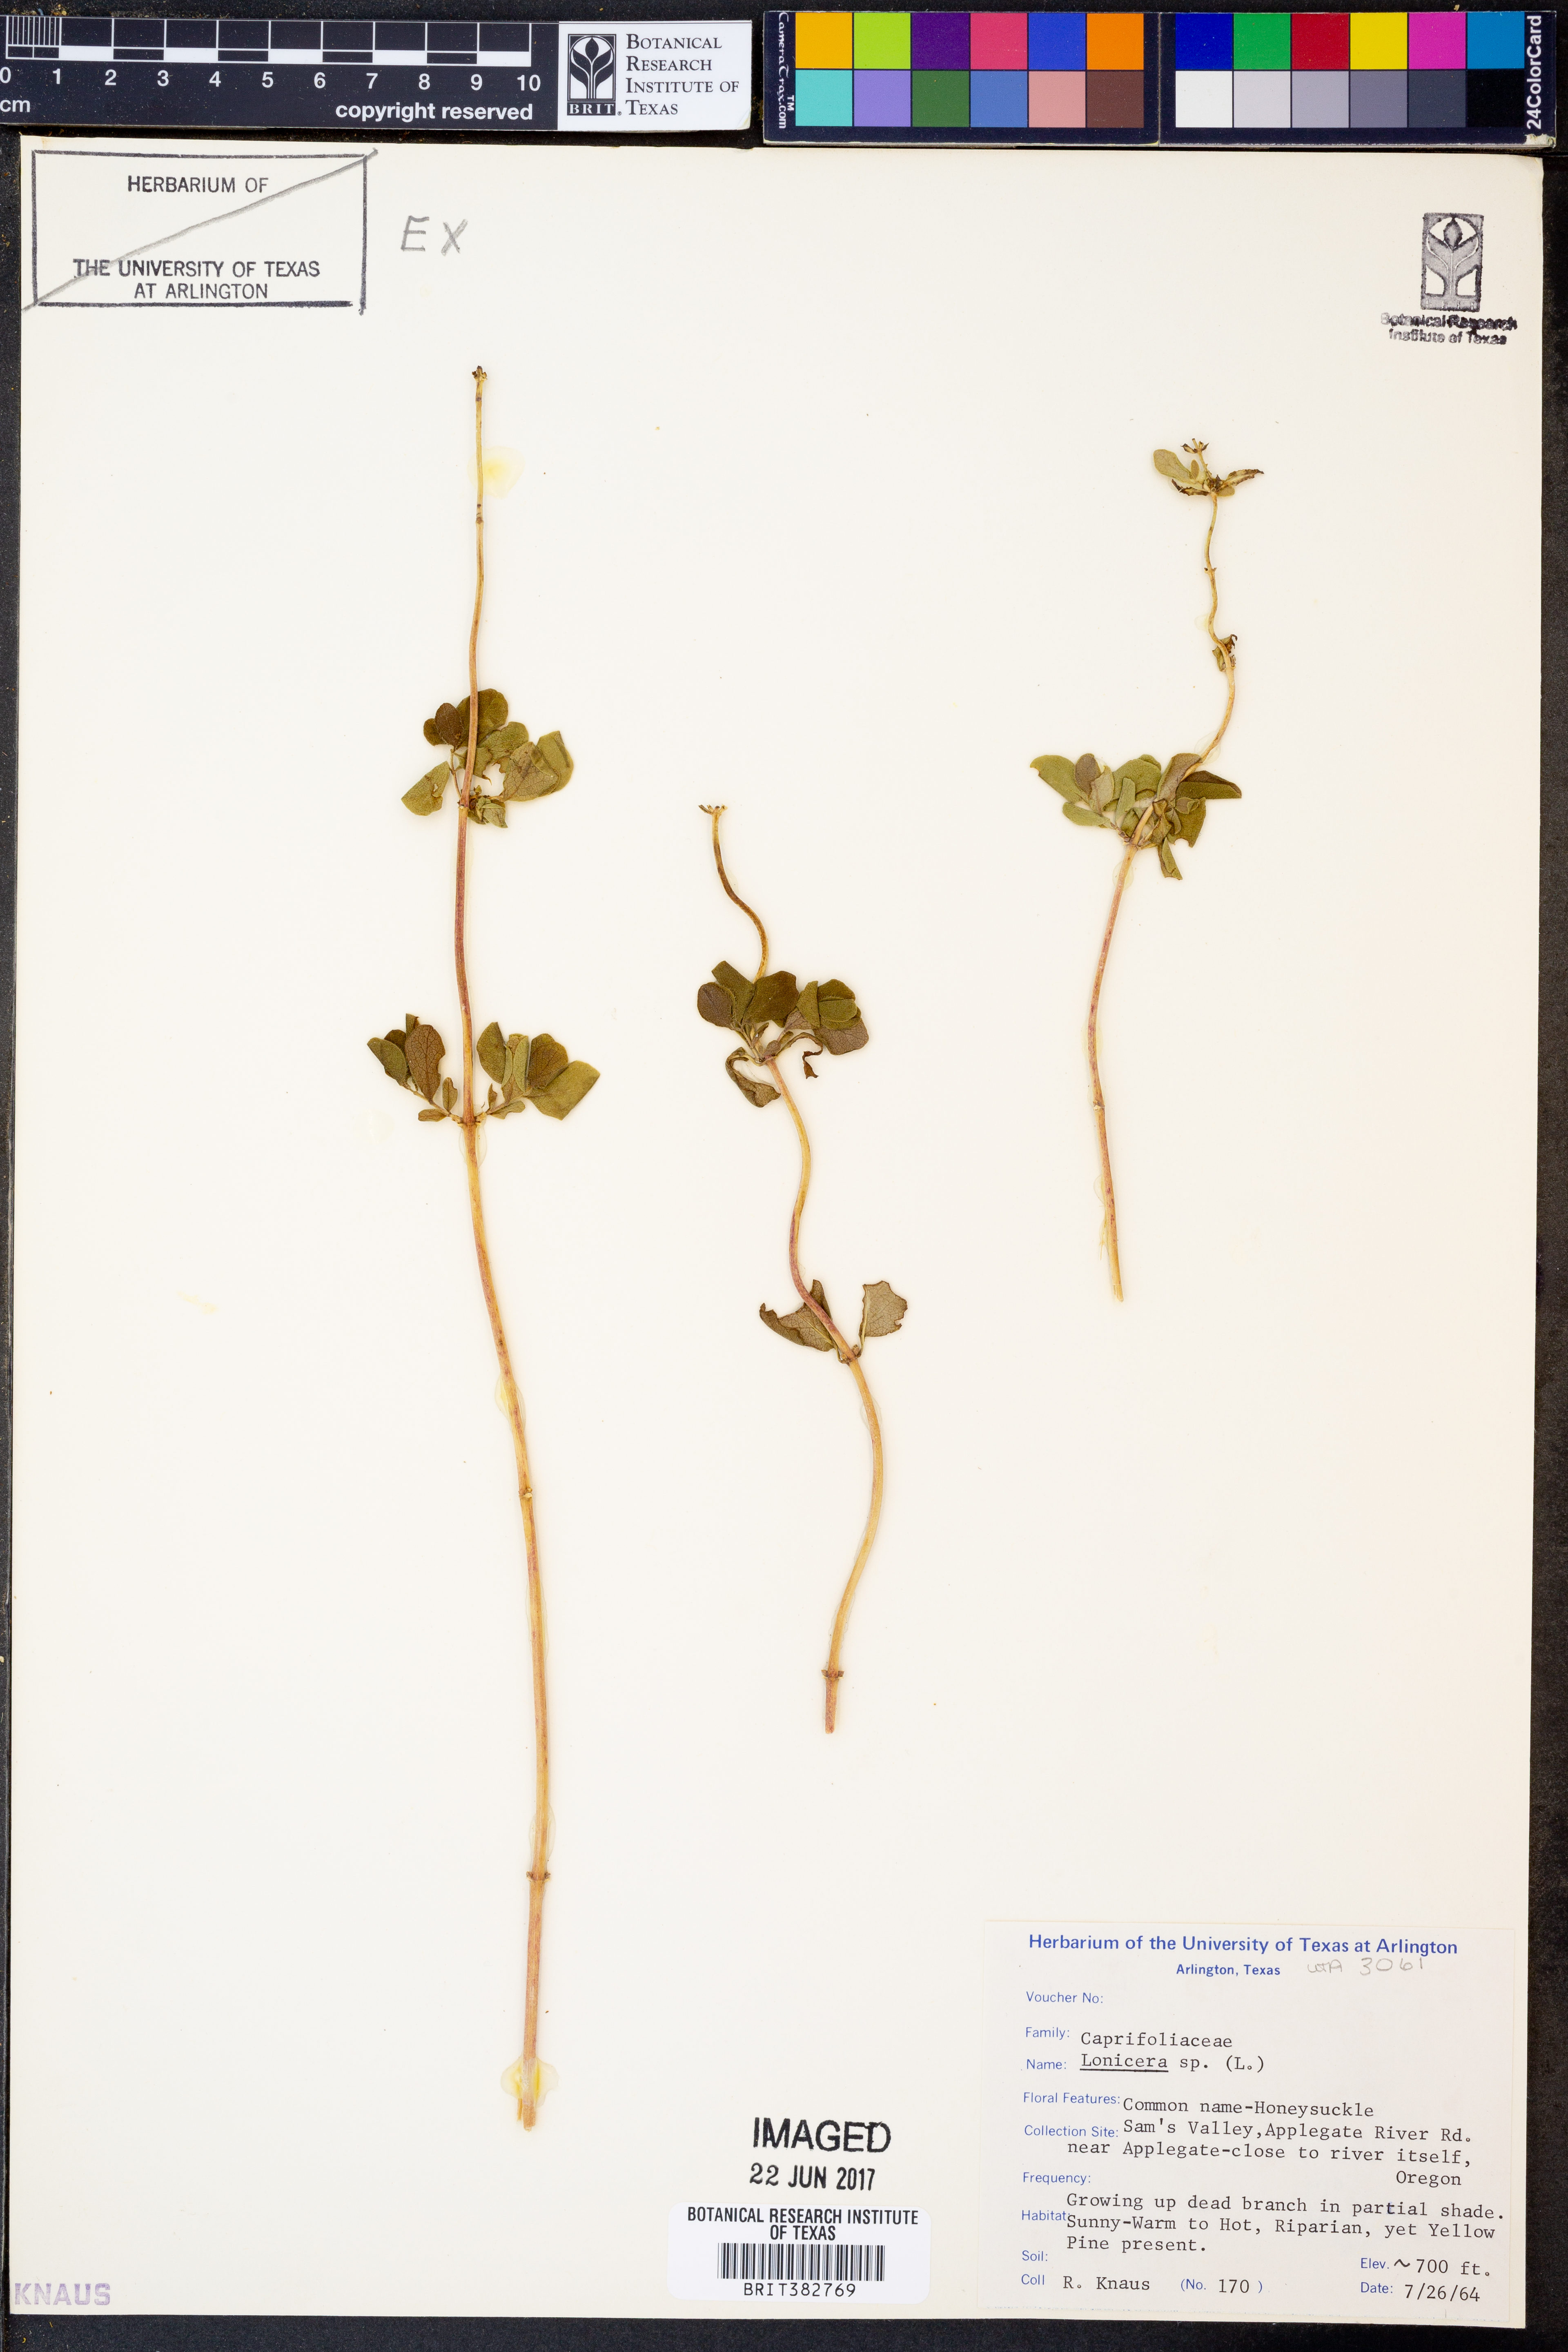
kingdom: Plantae
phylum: Tracheophyta
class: Magnoliopsida
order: Dipsacales
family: Caprifoliaceae
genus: Lonicera
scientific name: Lonicera
